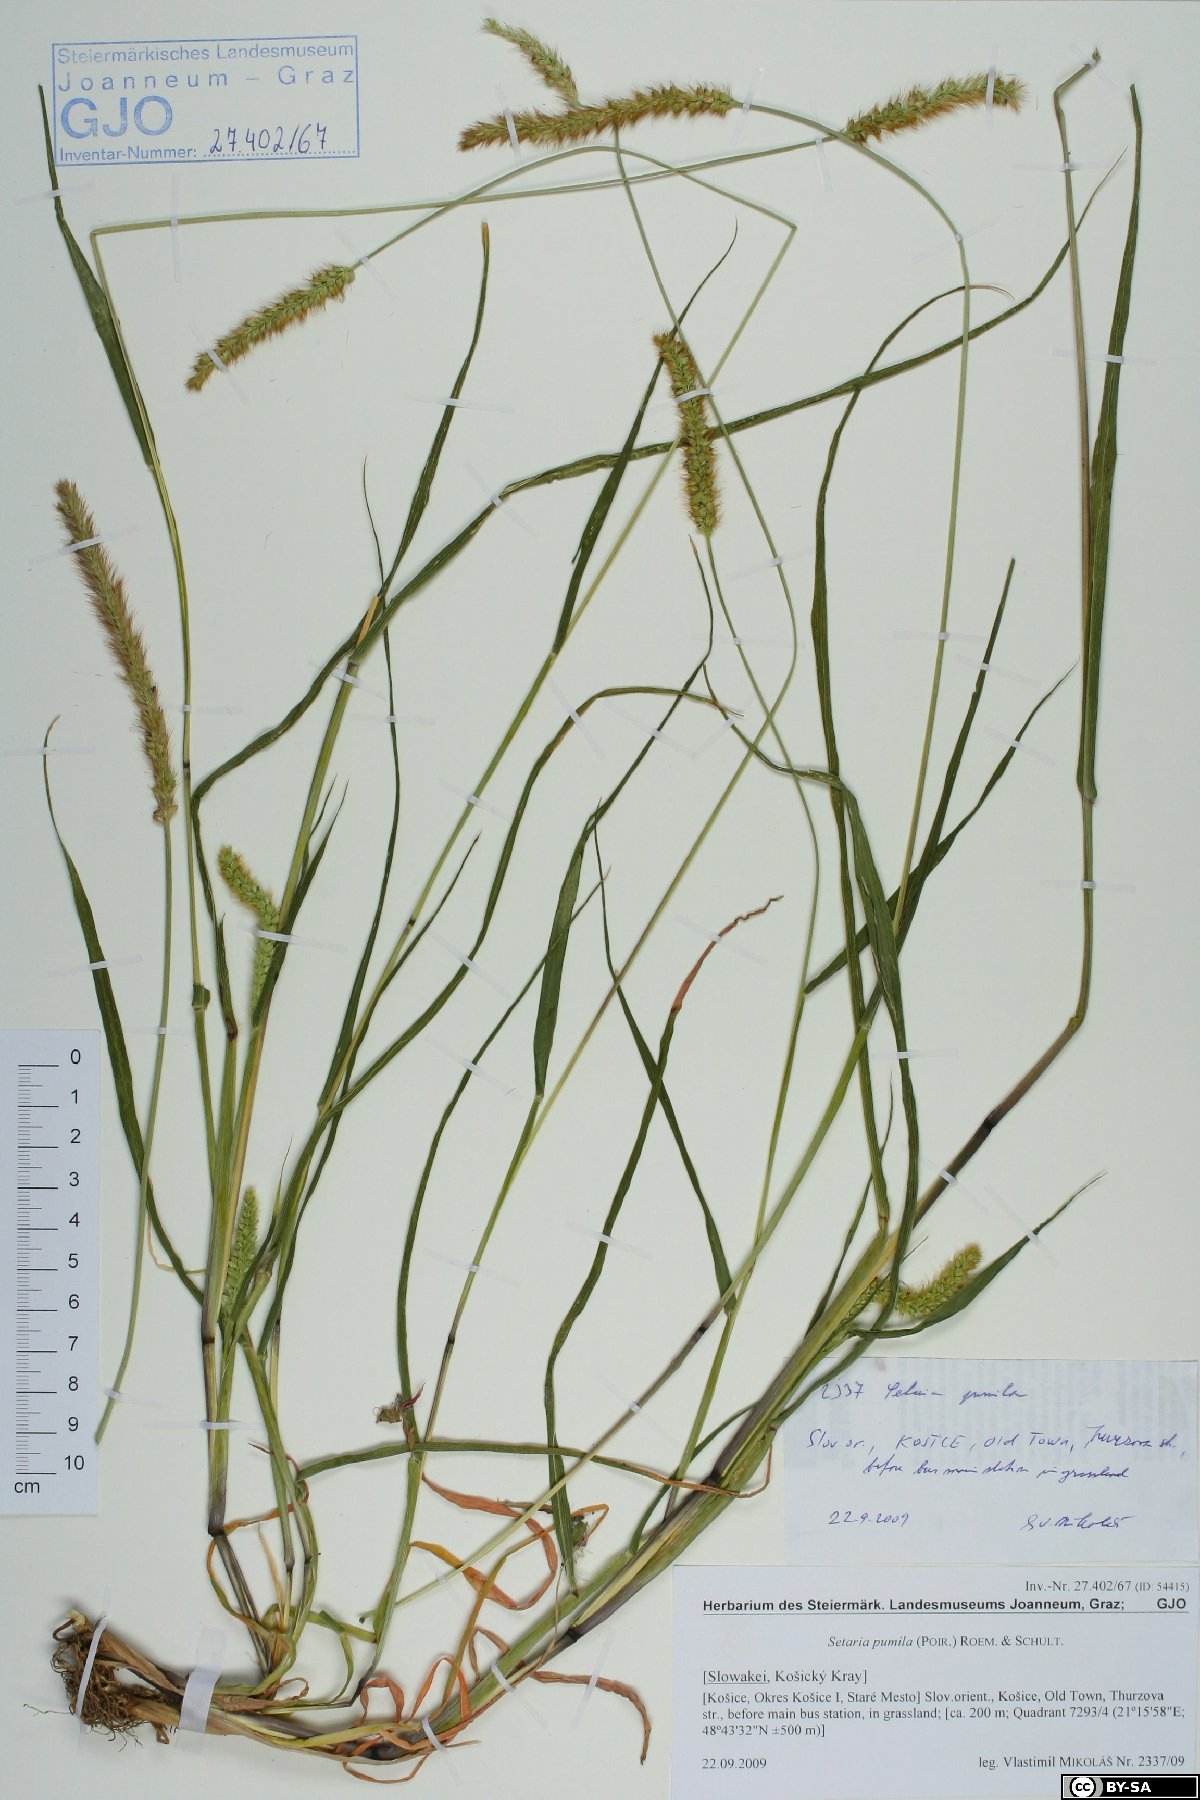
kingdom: Plantae
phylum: Tracheophyta
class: Liliopsida
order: Poales
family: Poaceae
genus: Setaria
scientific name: Setaria pumila
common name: Yellow bristle-grass
